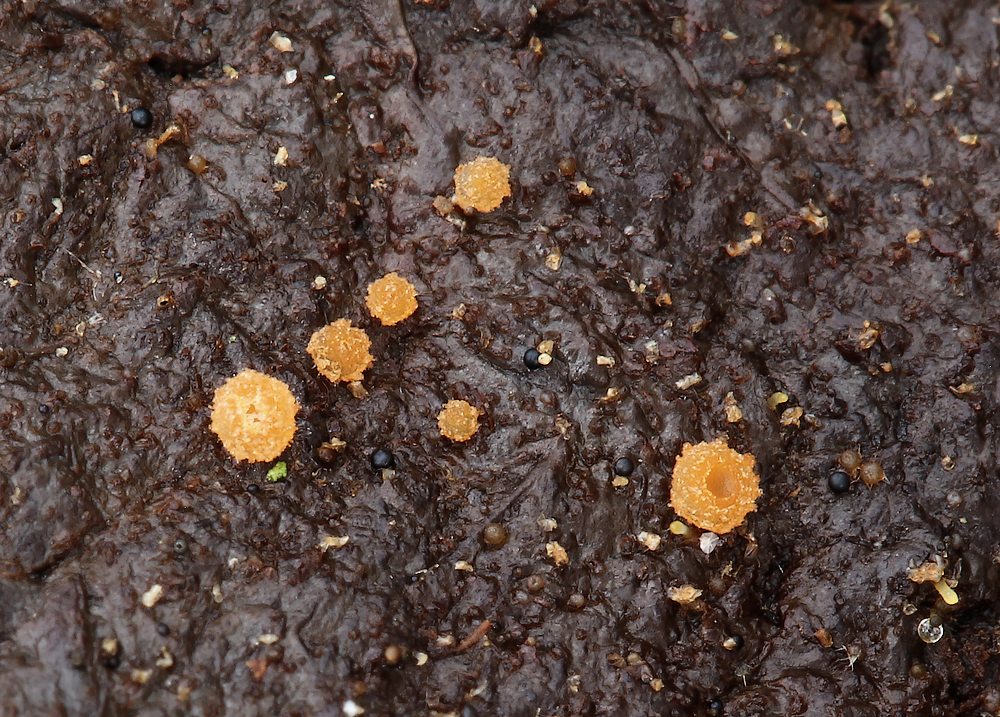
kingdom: Fungi
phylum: Ascomycota
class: Pezizomycetes
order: Pezizales
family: Pyronemataceae
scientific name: Pyronemataceae
